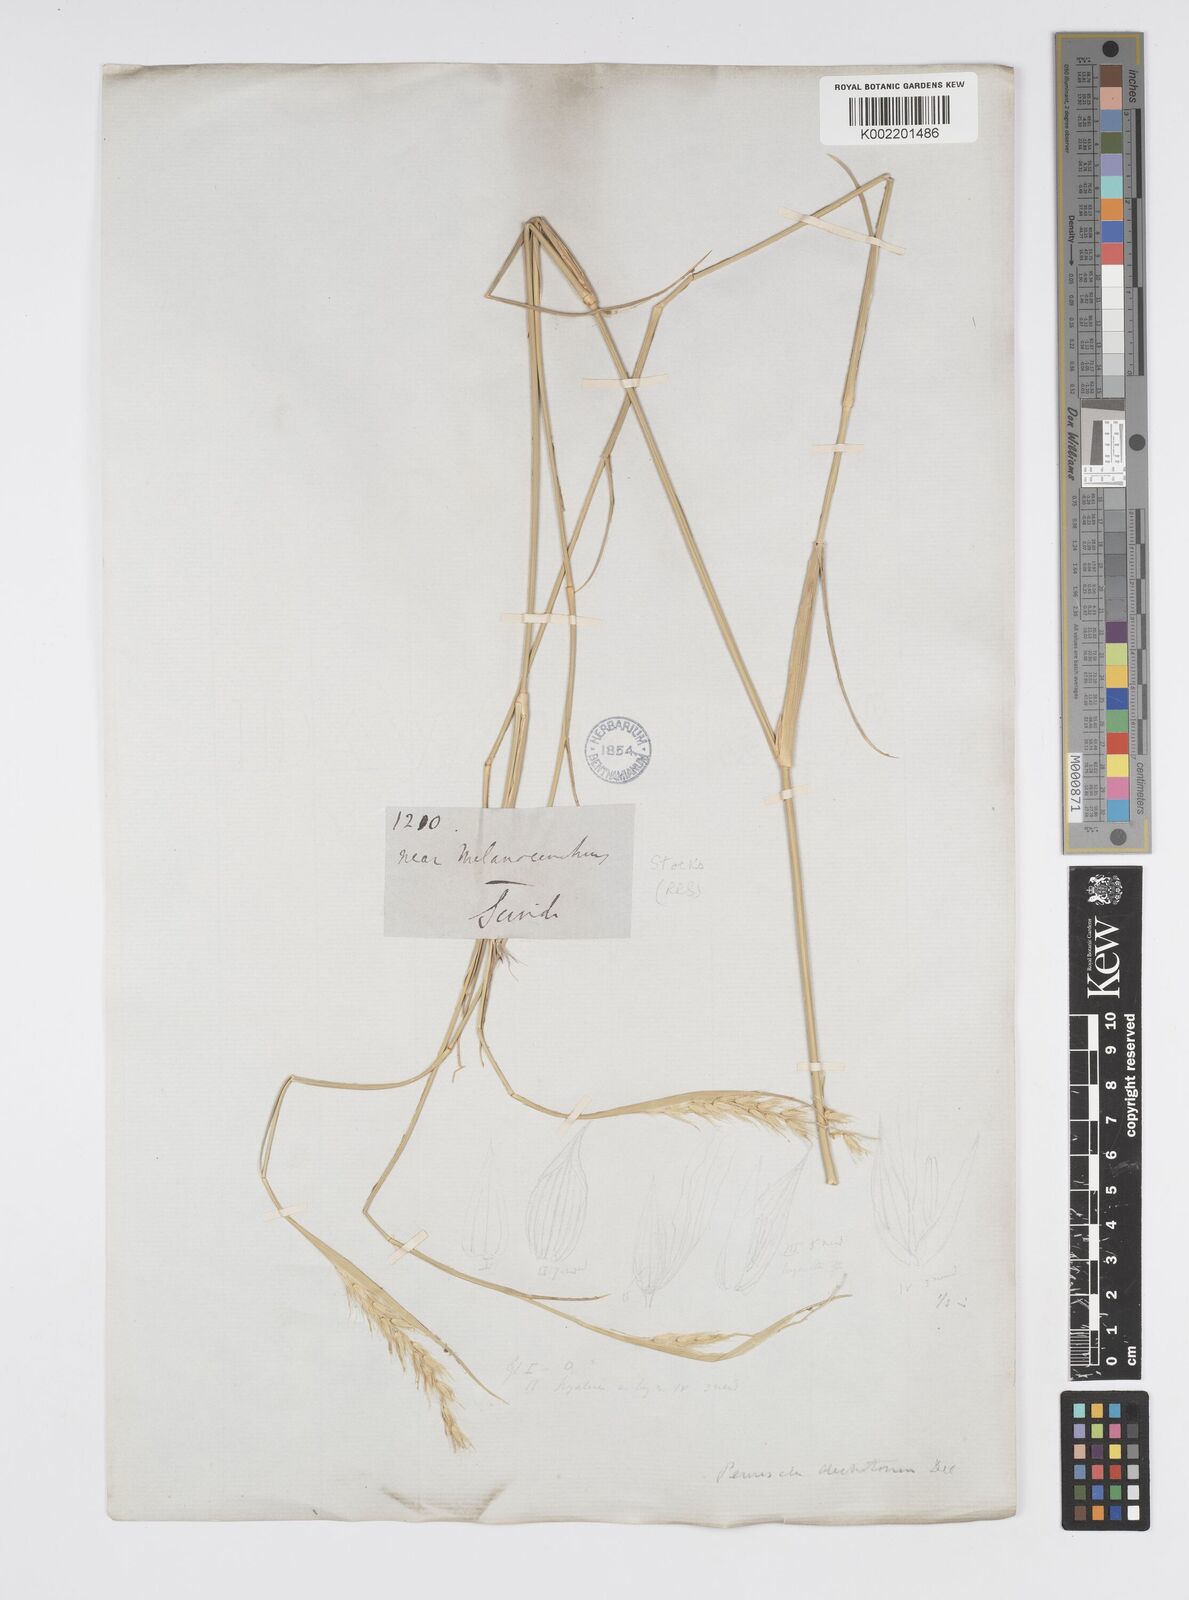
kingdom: Plantae
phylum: Tracheophyta
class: Liliopsida
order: Poales
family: Poaceae
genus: Cenchrus
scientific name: Cenchrus divisus
